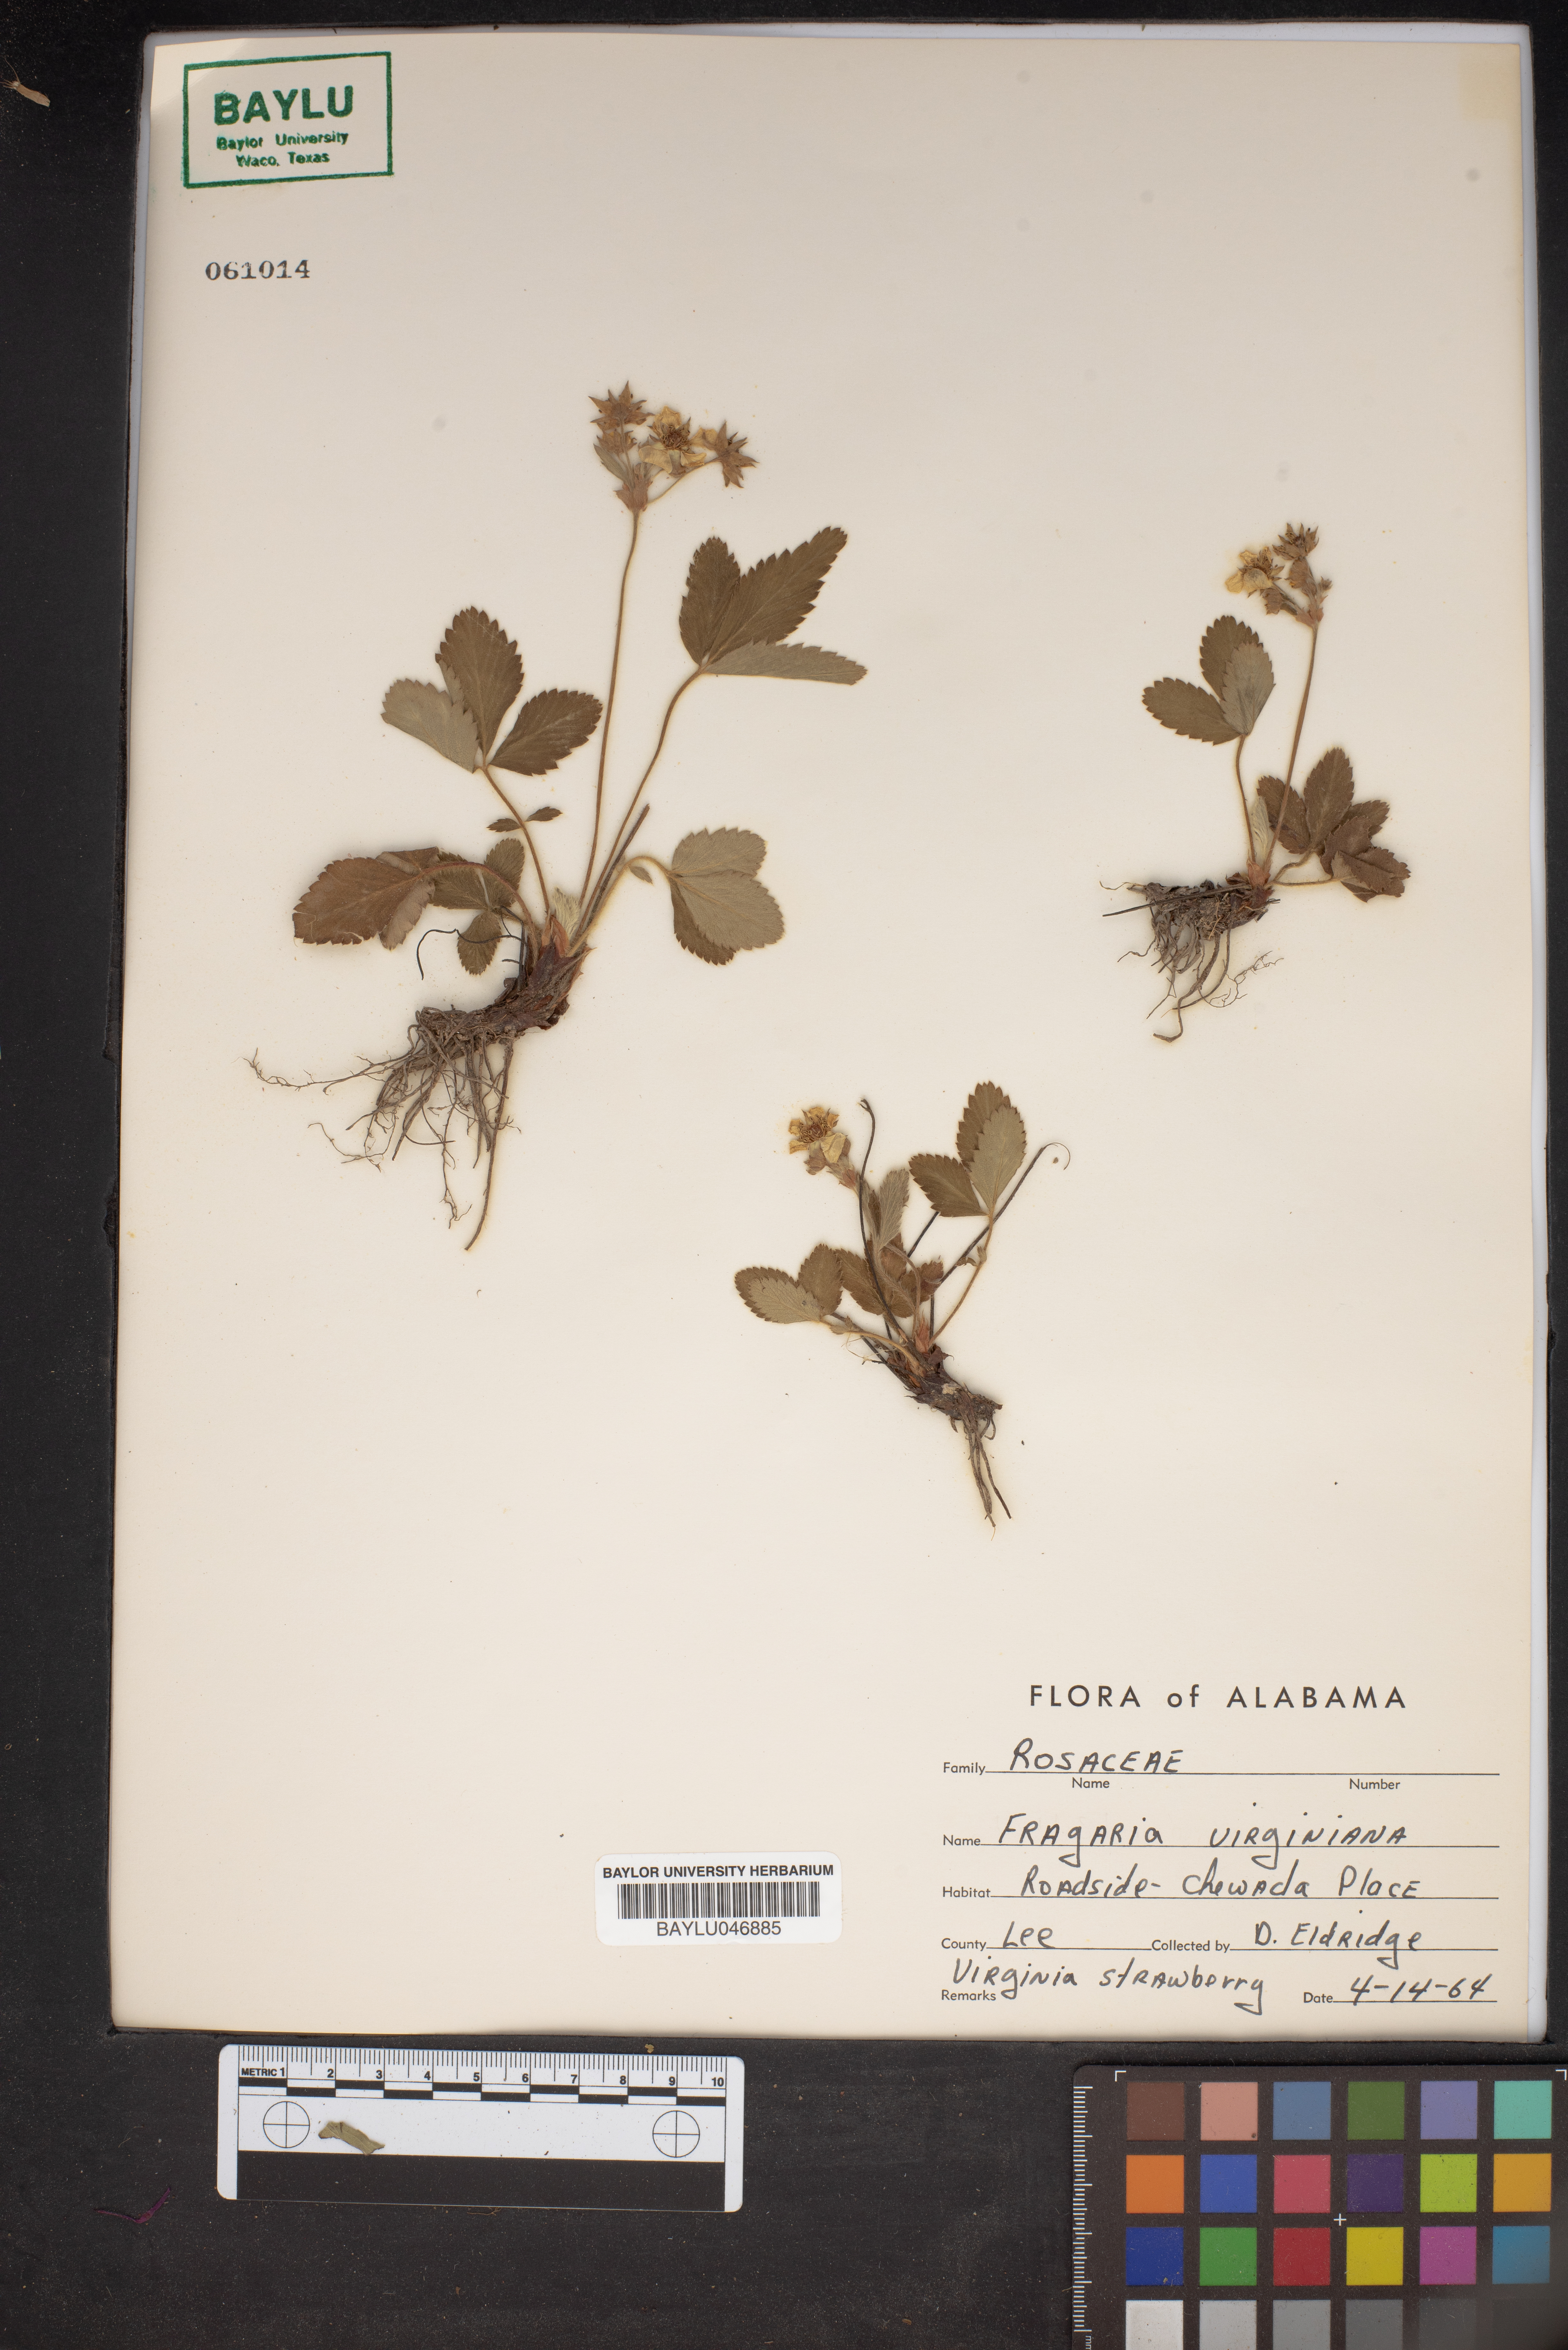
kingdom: Plantae
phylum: Tracheophyta
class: Magnoliopsida
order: Rosales
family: Rosaceae
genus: Fragaria
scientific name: Fragaria virginiana
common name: Thickleaved wild strawberry
